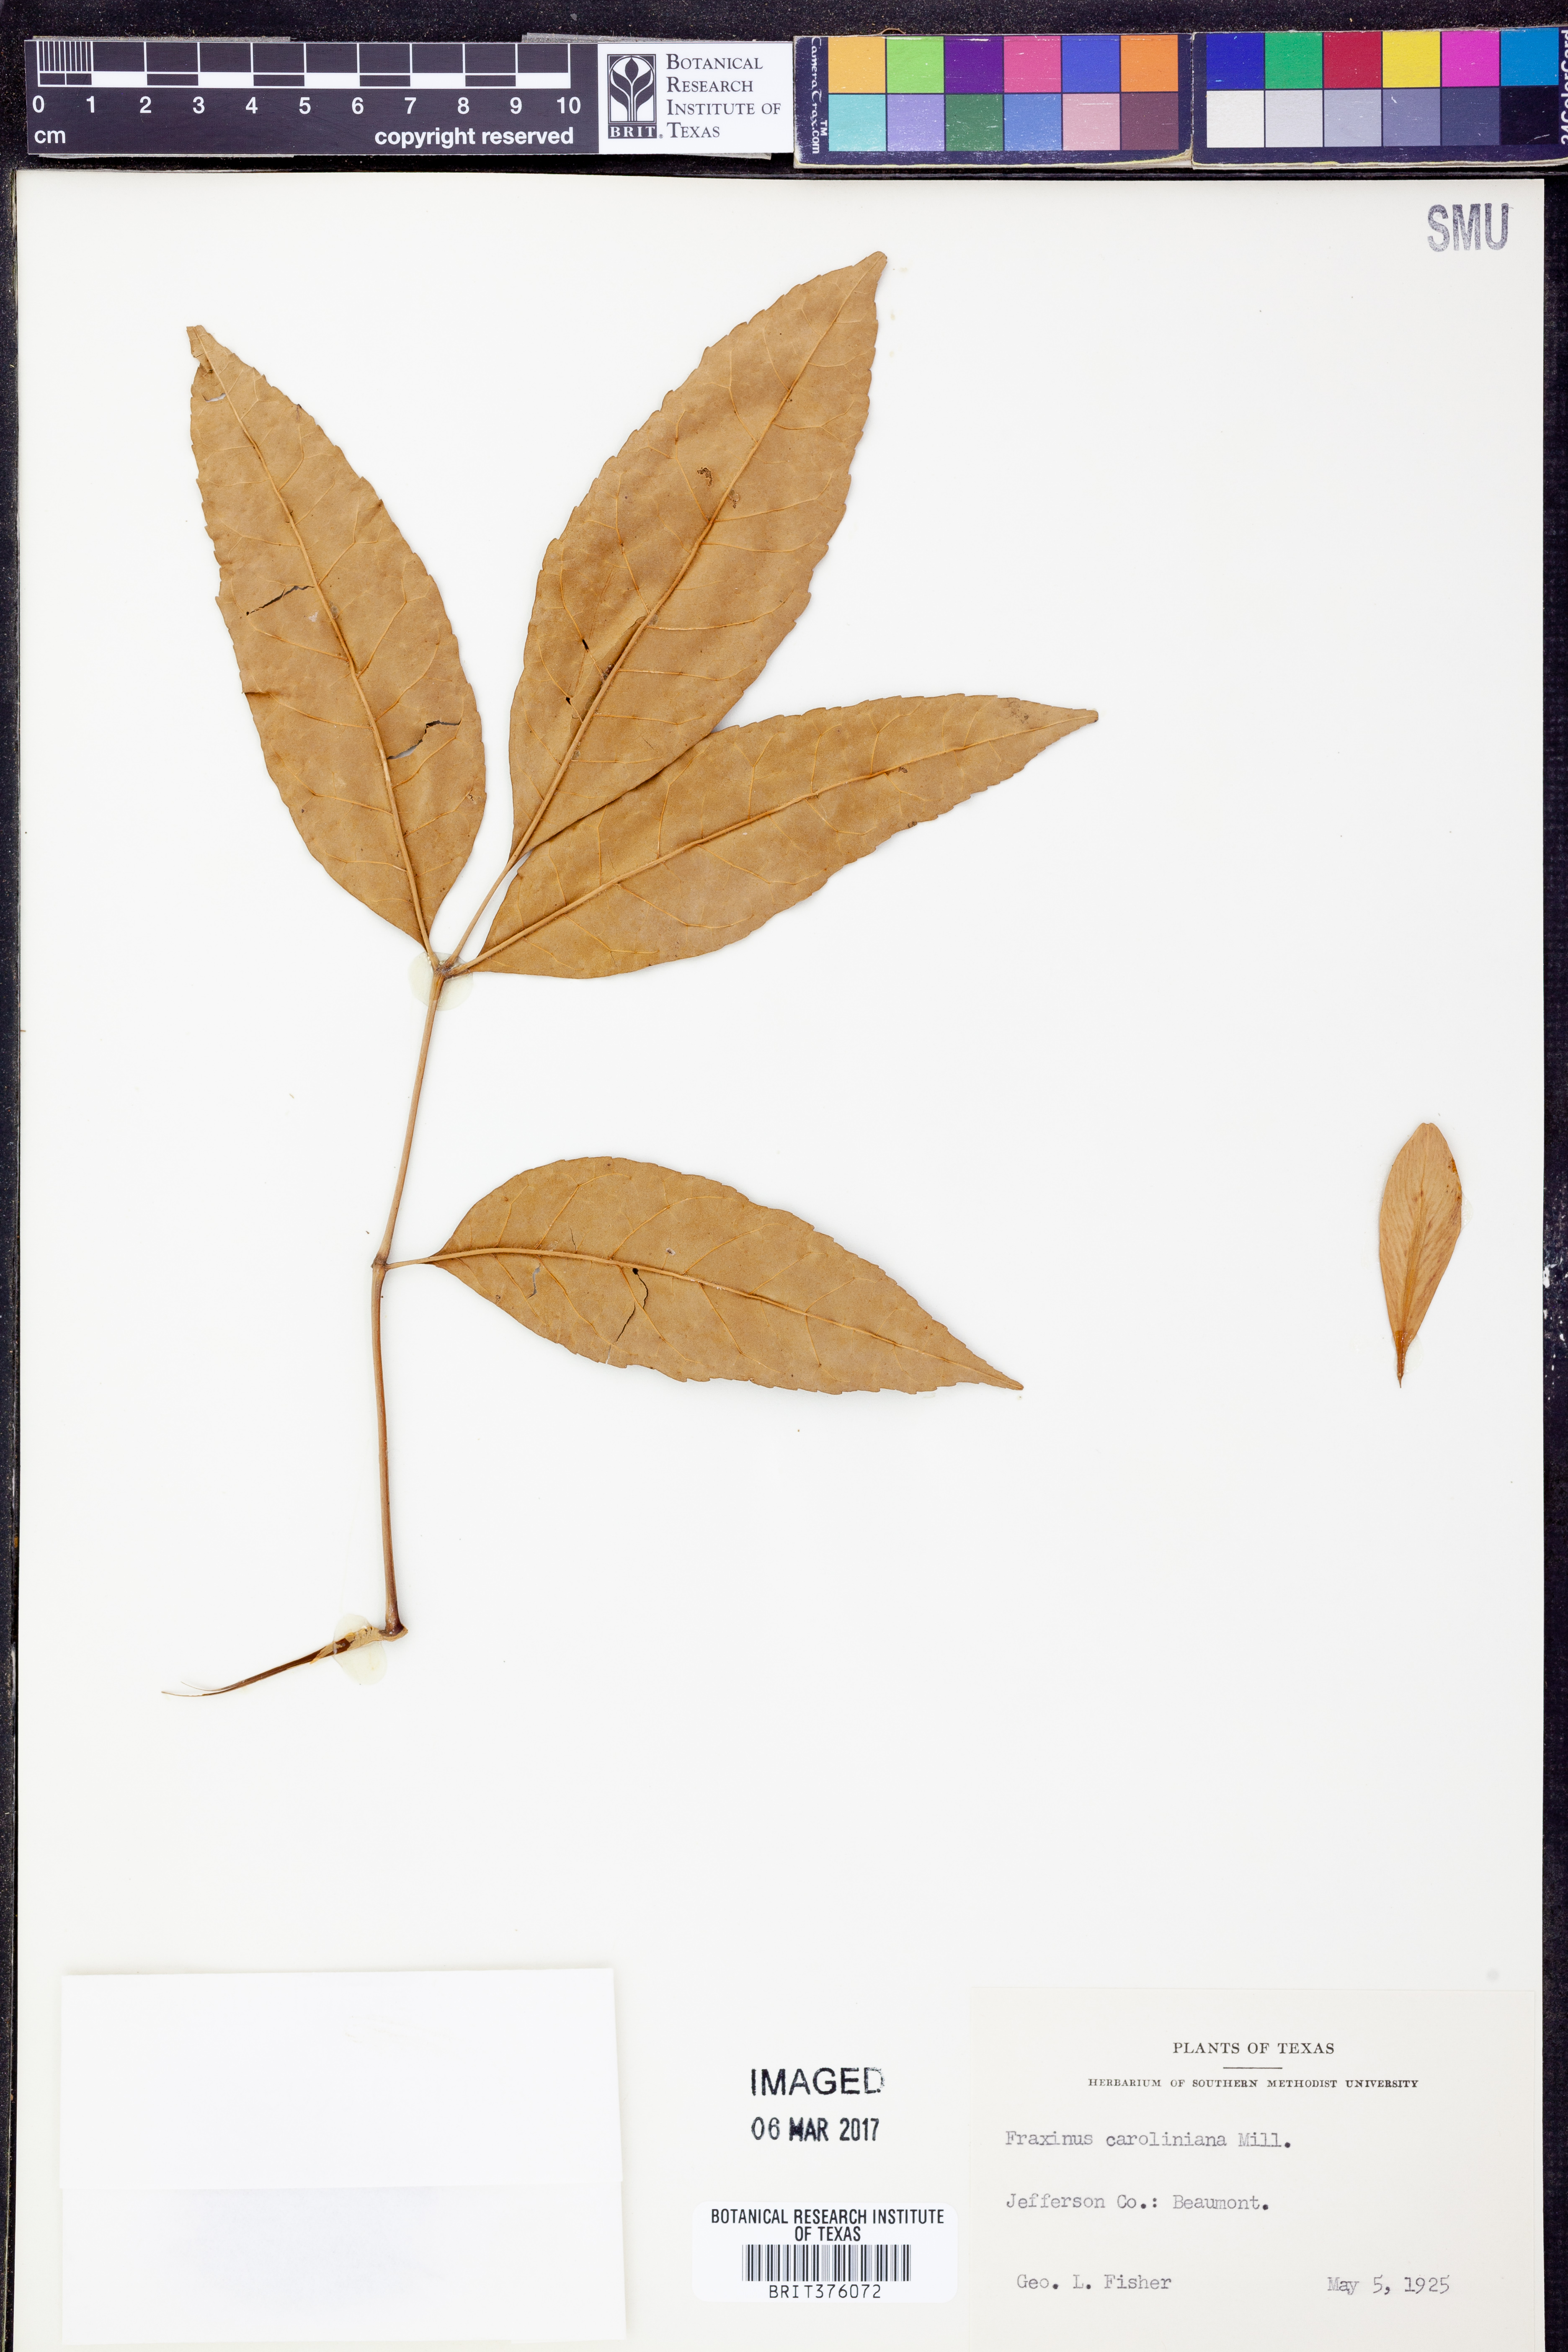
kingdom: Plantae
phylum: Tracheophyta
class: Magnoliopsida
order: Lamiales
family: Oleaceae
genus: Fraxinus
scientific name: Fraxinus caroliniana
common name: Carolina ash
